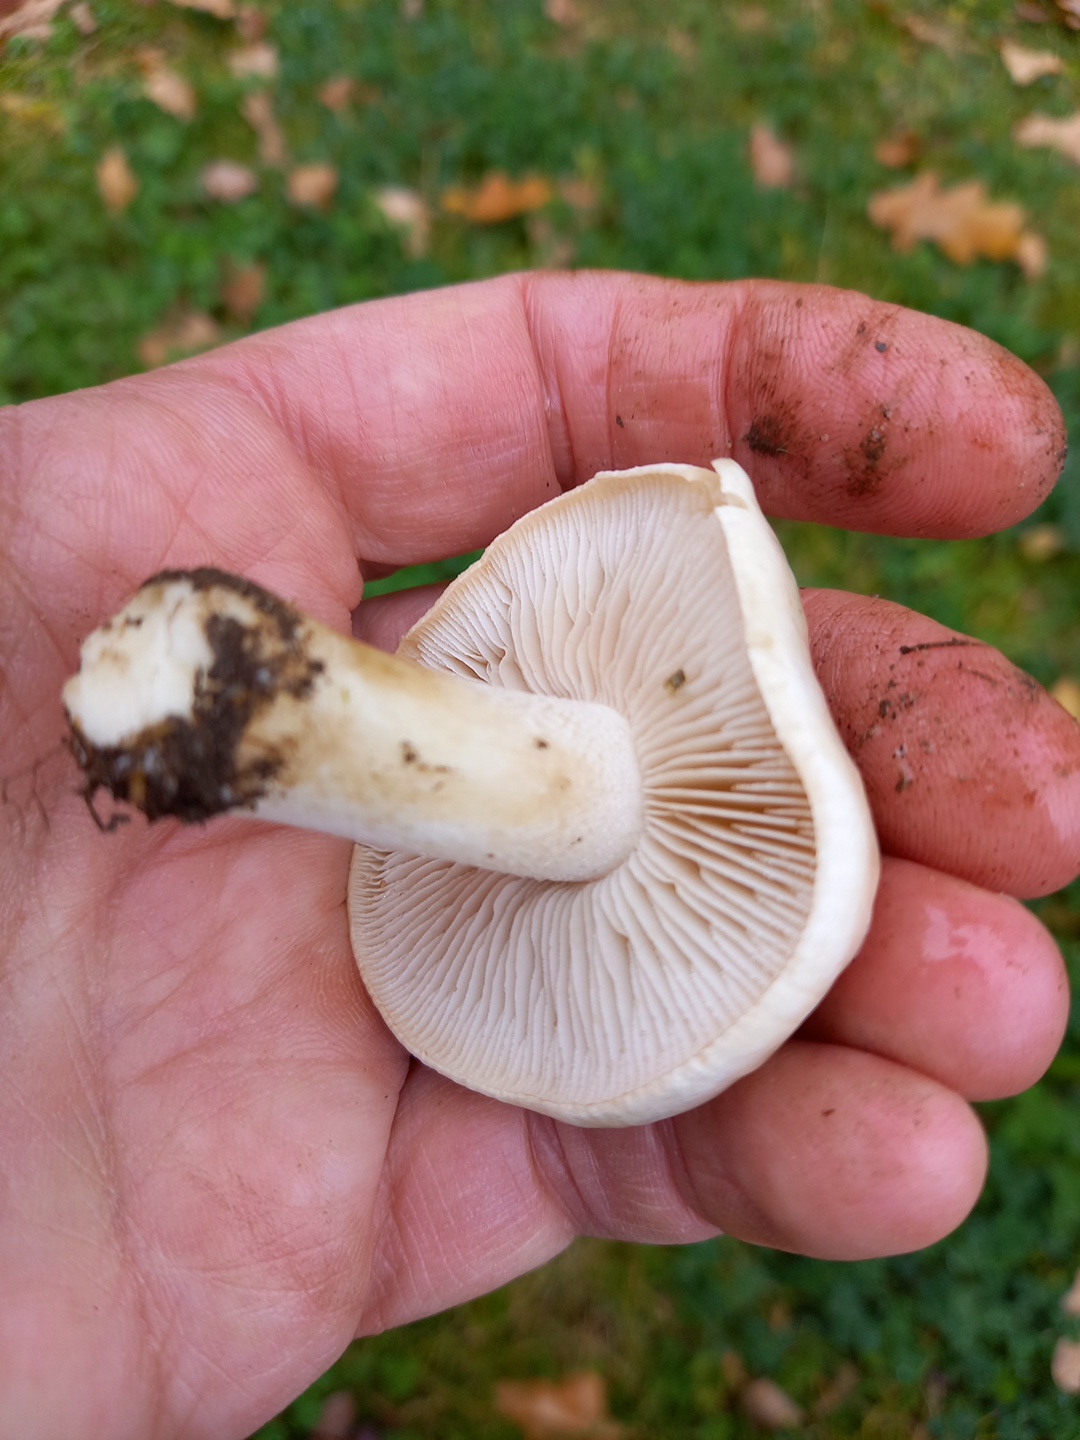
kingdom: Fungi
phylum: Basidiomycota
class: Agaricomycetes
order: Agaricales
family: Hymenogastraceae
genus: Hebeloma
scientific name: Hebeloma crustuliniforme
